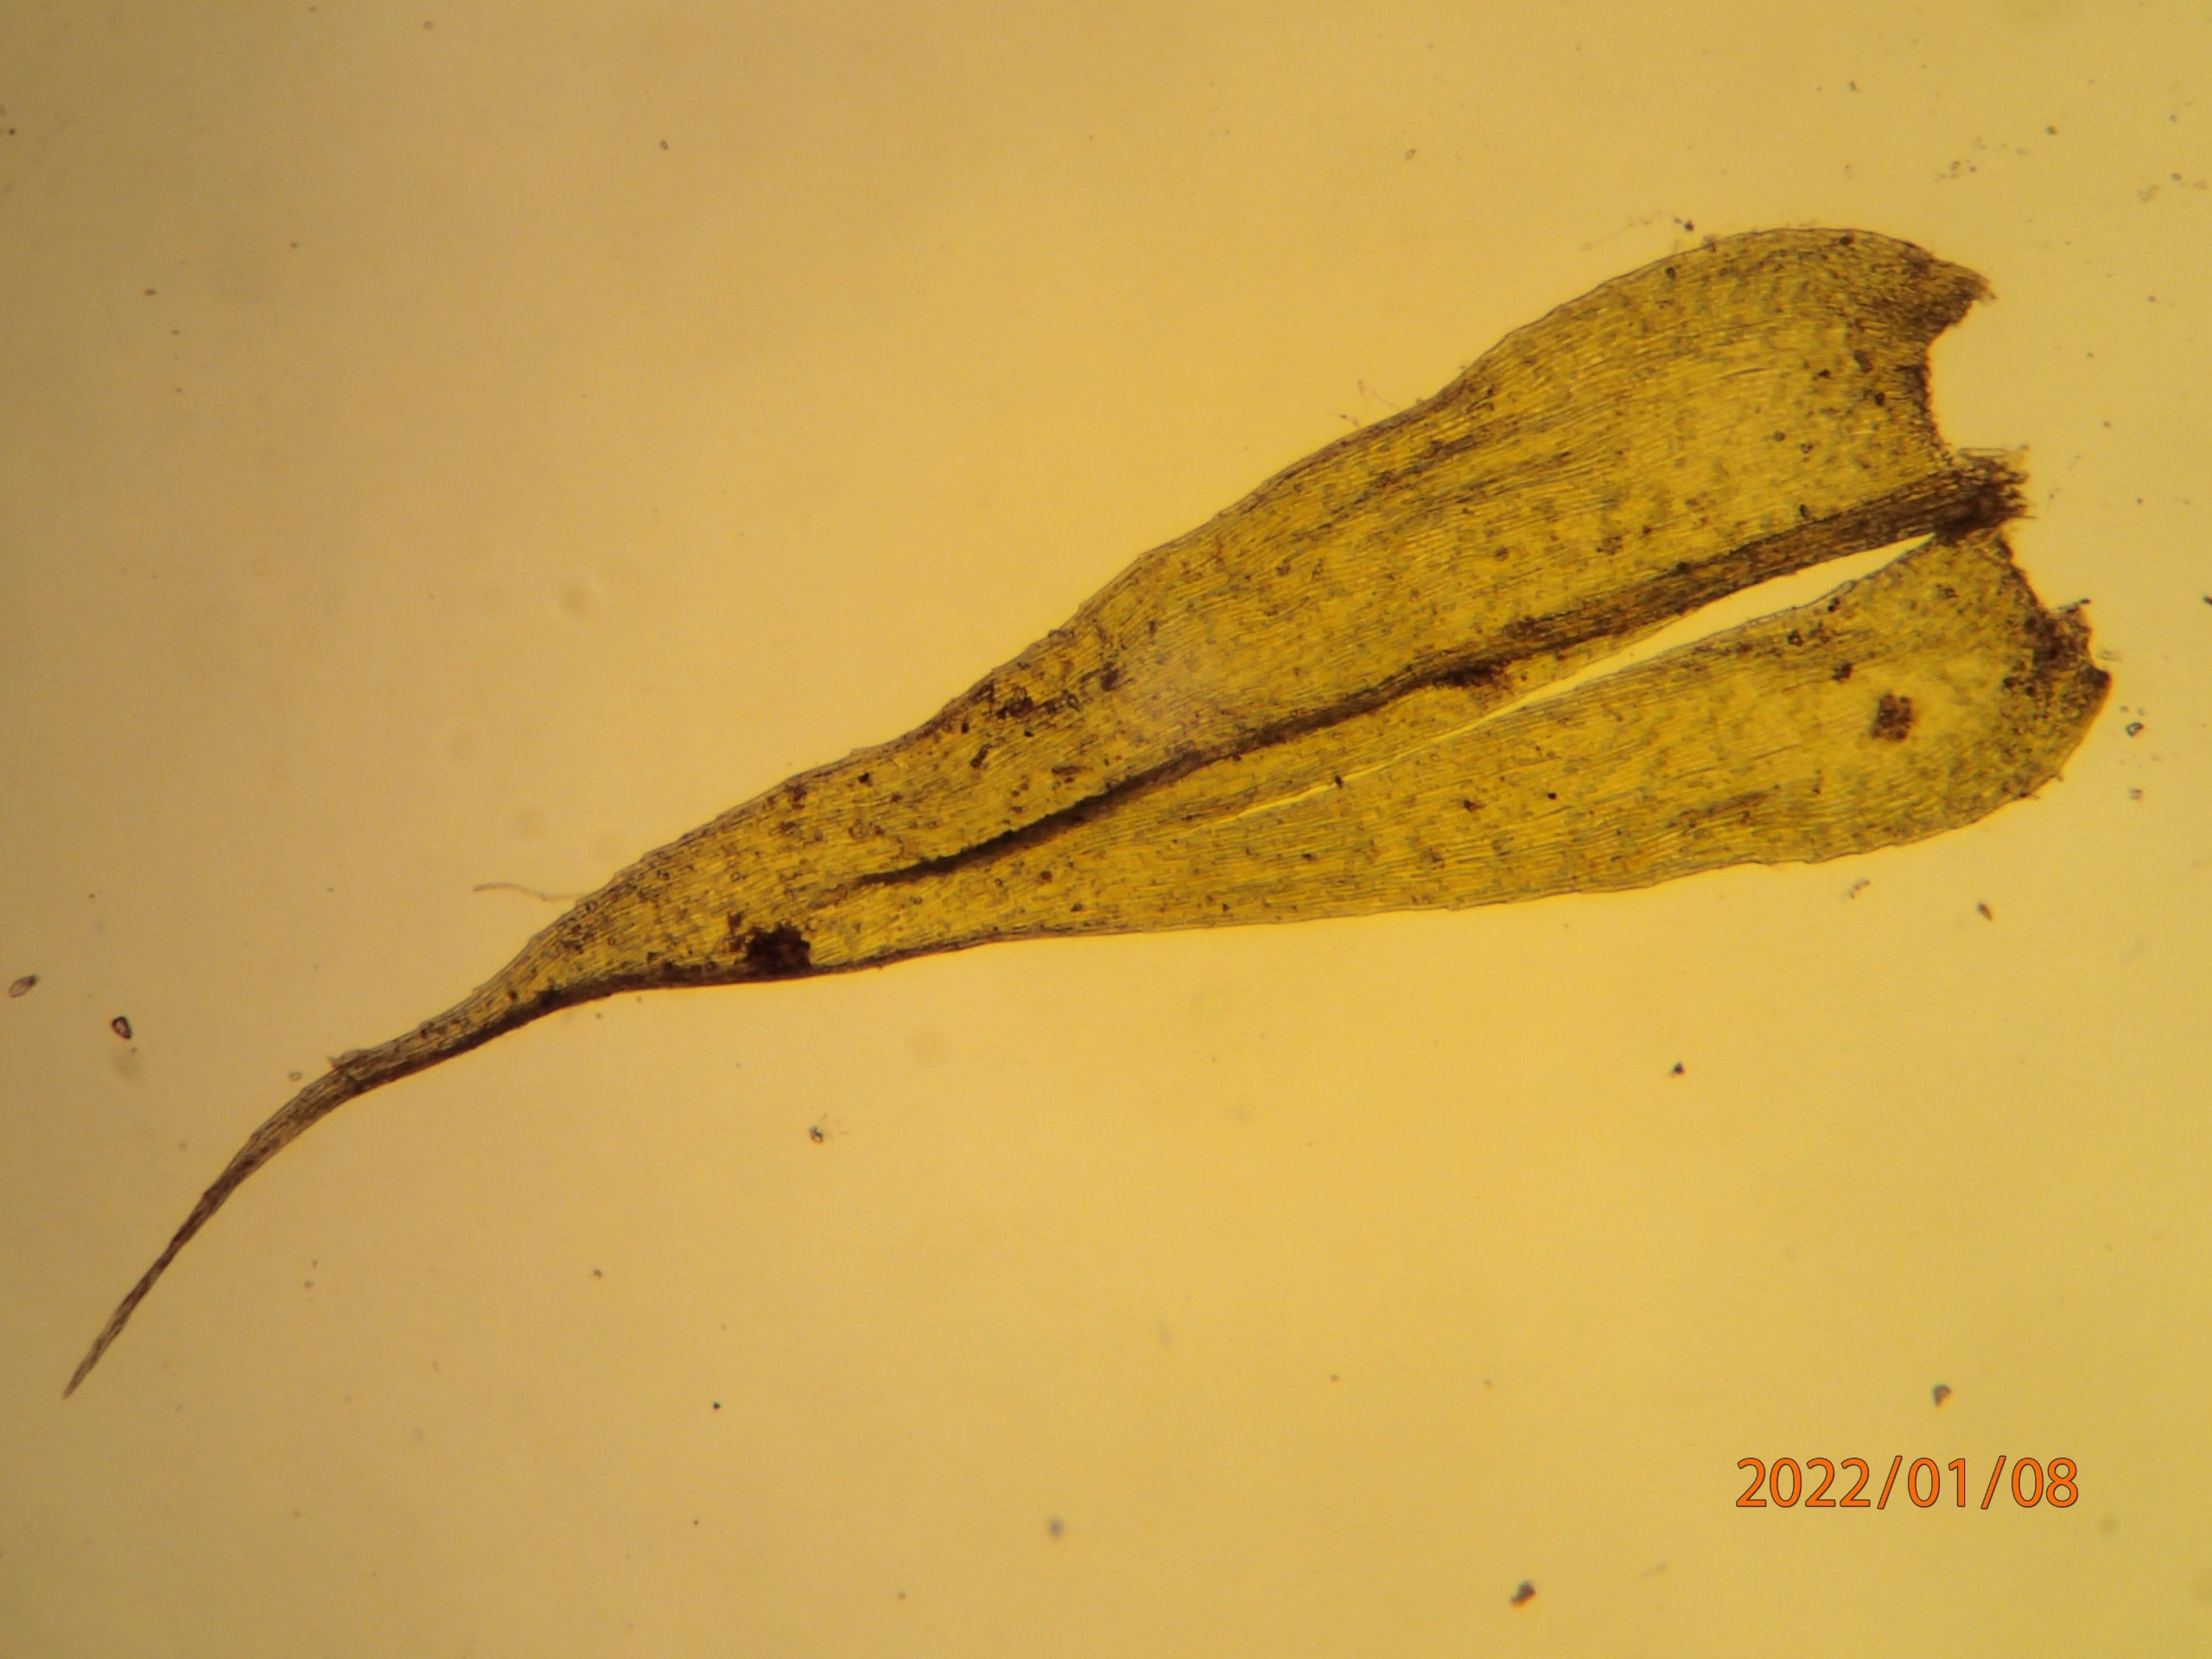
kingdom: Plantae
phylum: Bryophyta
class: Bryopsida
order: Hypnales
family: Brachytheciaceae
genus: Brachytheciastrum
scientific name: Brachytheciastrum velutinum
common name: Fløjls-kortkapsel
